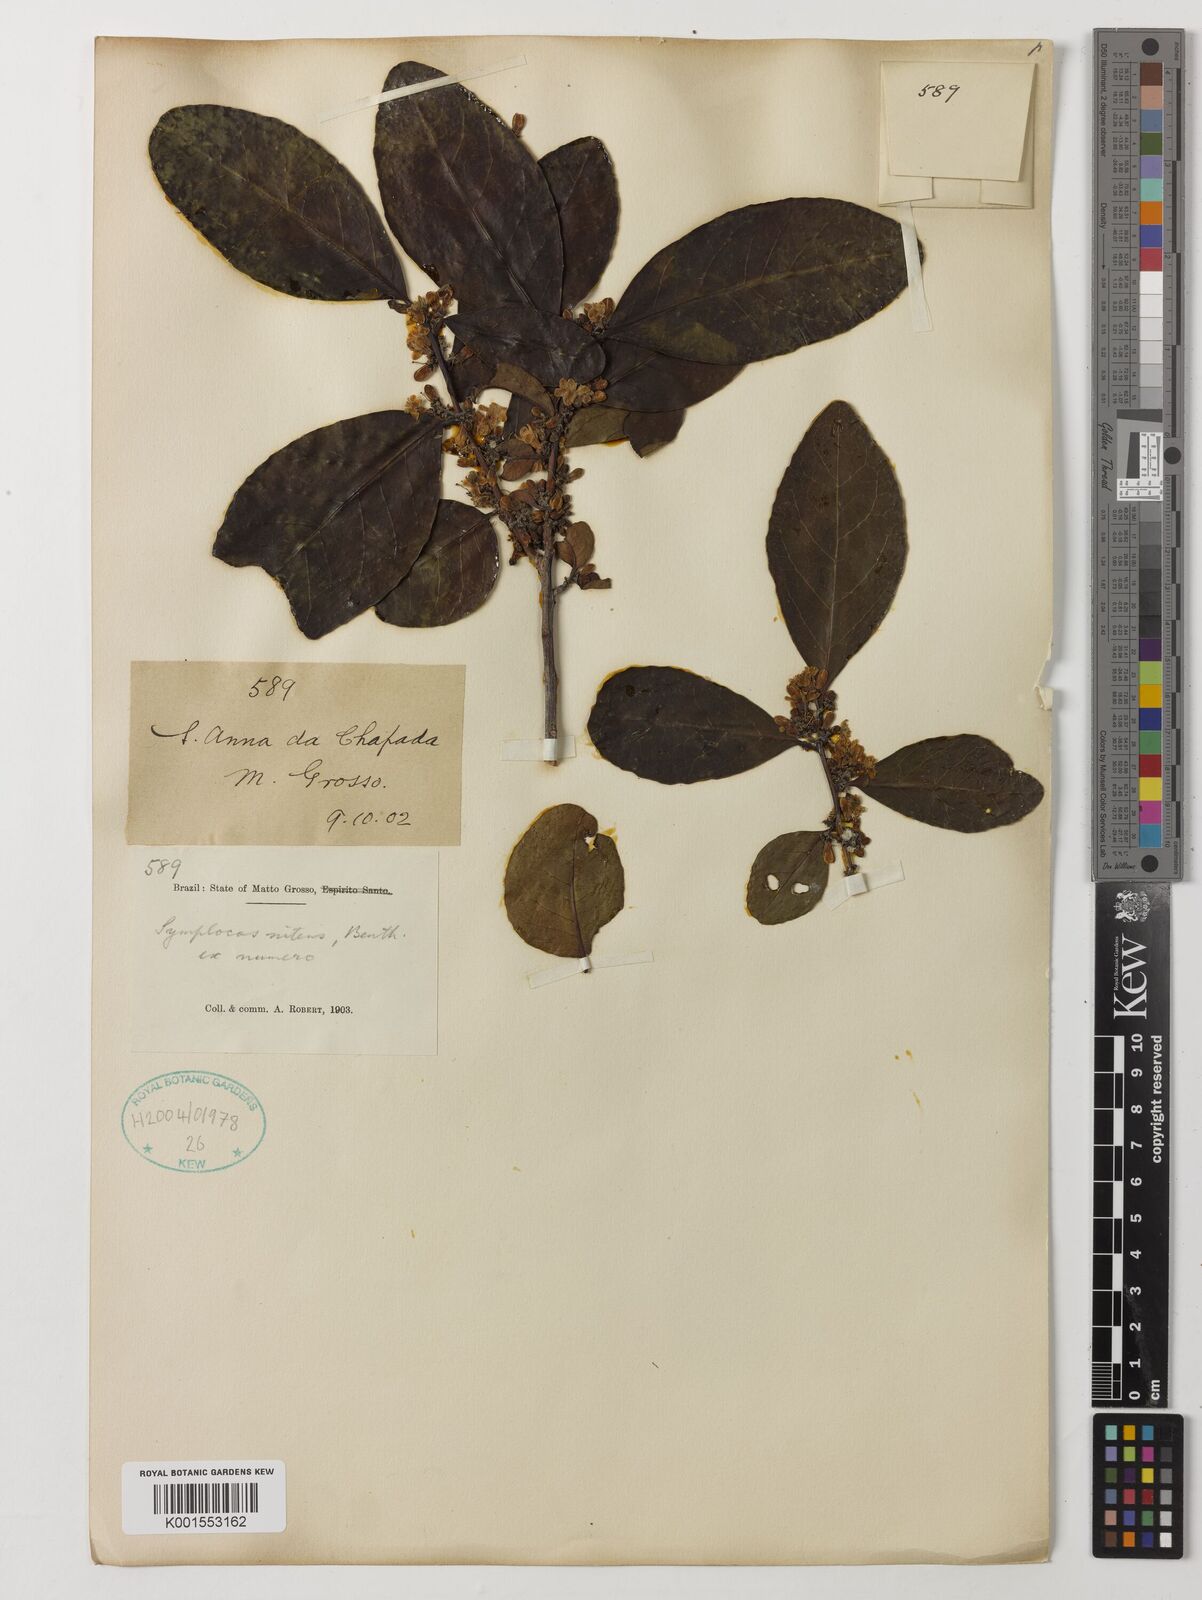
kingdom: Plantae
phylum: Tracheophyta
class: Magnoliopsida
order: Ericales
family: Symplocaceae
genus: Symplocos
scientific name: Symplocos nitens
